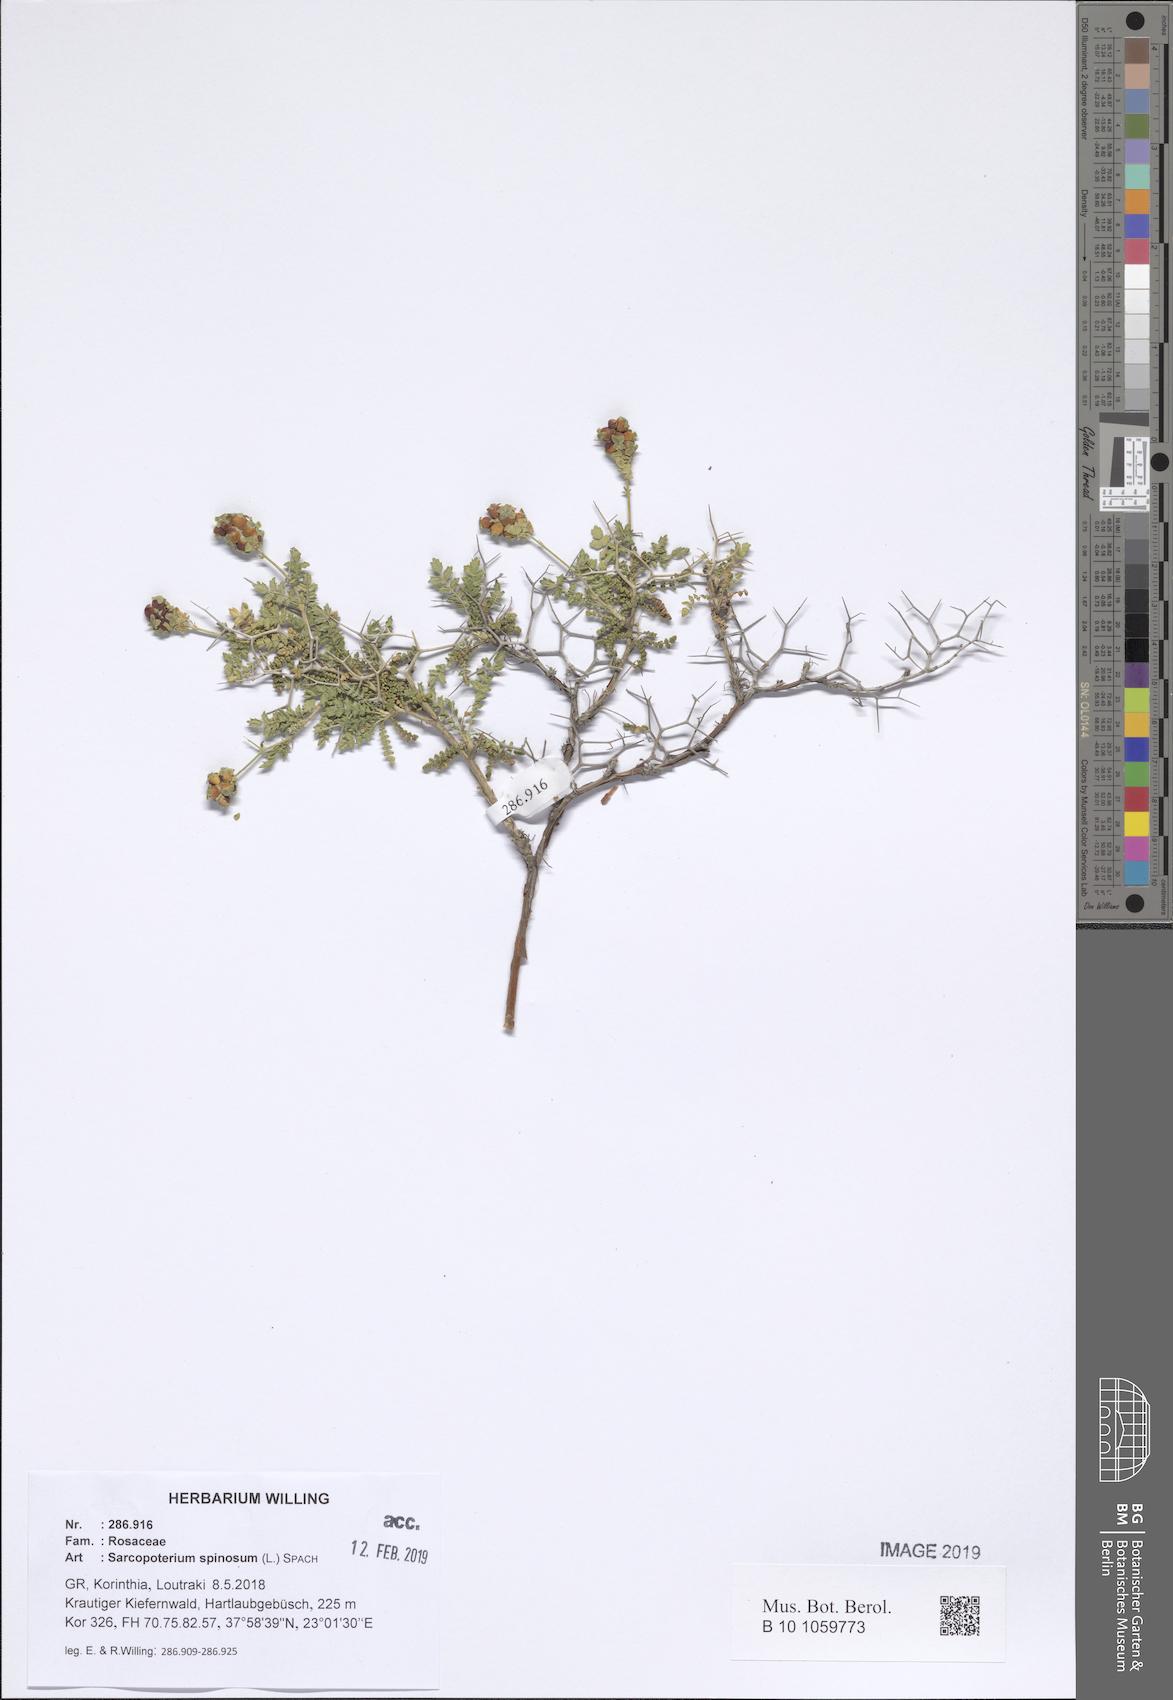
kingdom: Plantae
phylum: Tracheophyta
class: Magnoliopsida
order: Rosales
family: Rosaceae
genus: Sarcopoterium
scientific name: Sarcopoterium spinosum
